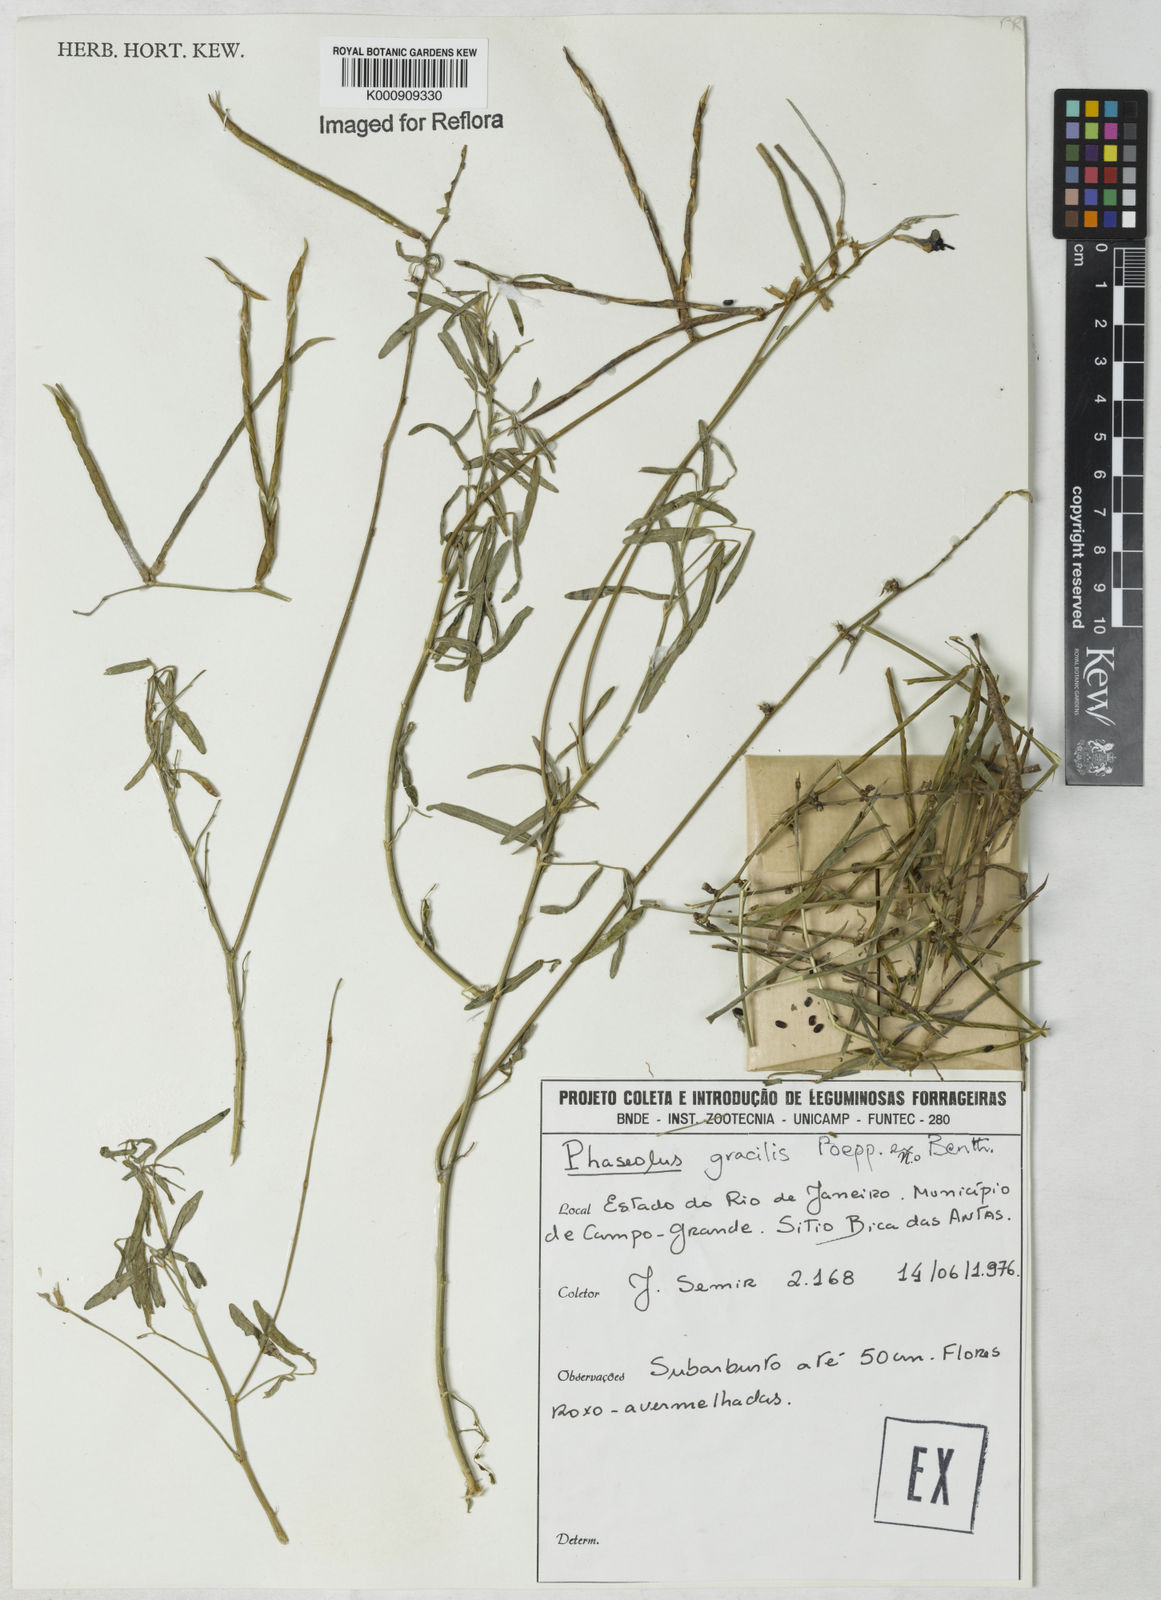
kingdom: Plantae
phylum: Tracheophyta
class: Magnoliopsida
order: Fabales
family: Fabaceae
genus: Macroptilium
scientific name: Macroptilium gracile
